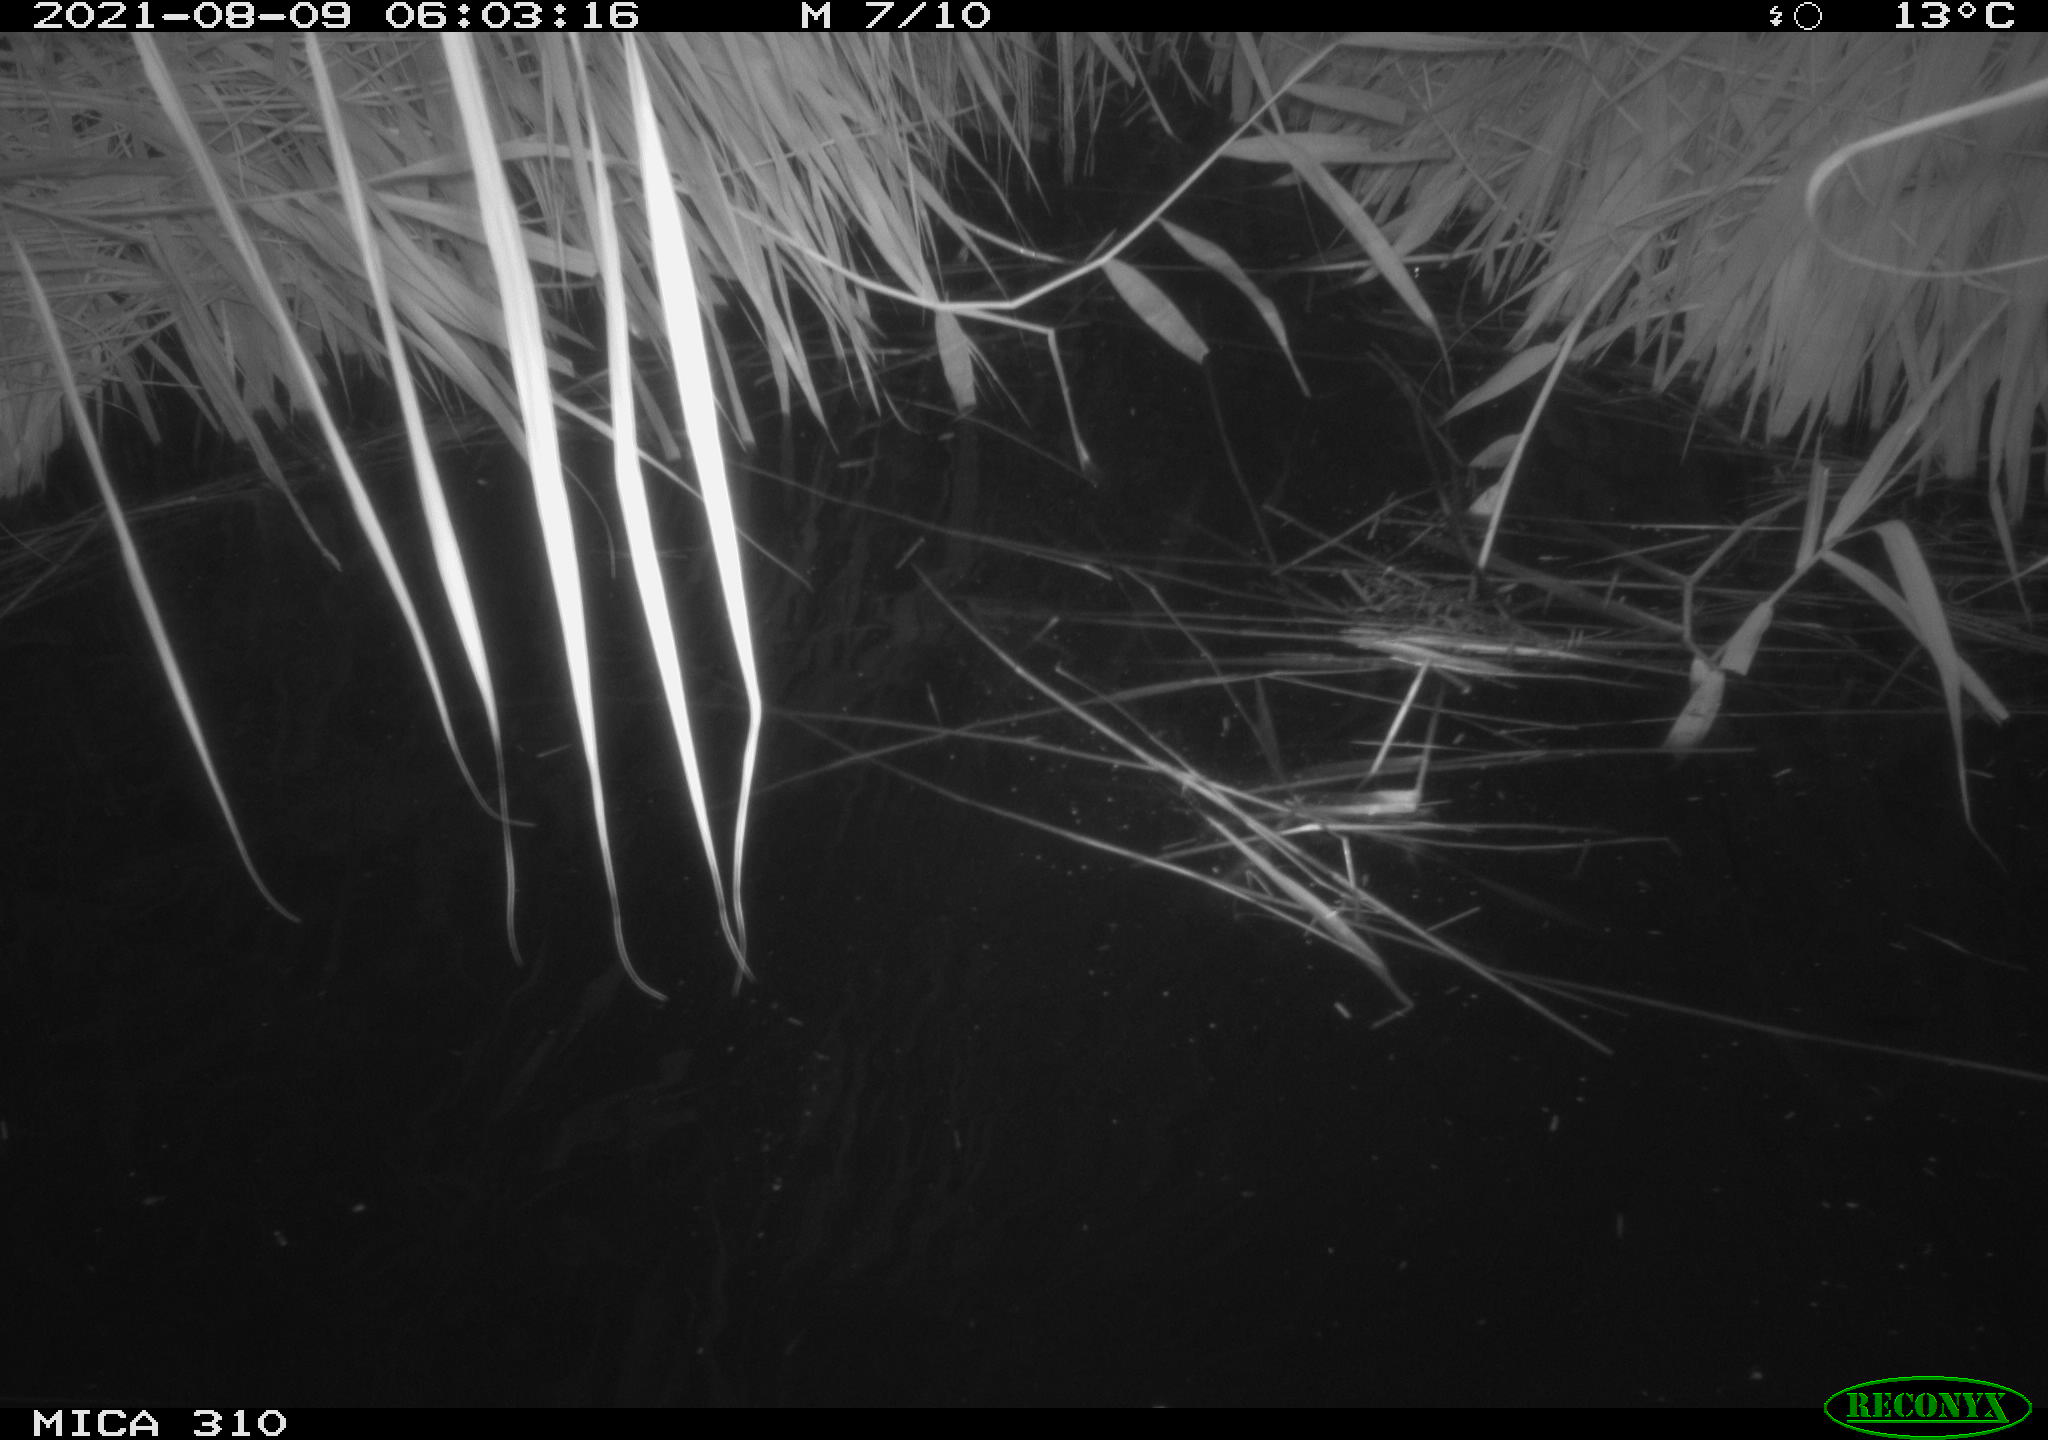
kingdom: Animalia
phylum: Chordata
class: Aves
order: Anseriformes
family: Anatidae
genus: Anas
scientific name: Anas platyrhynchos
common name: Mallard
